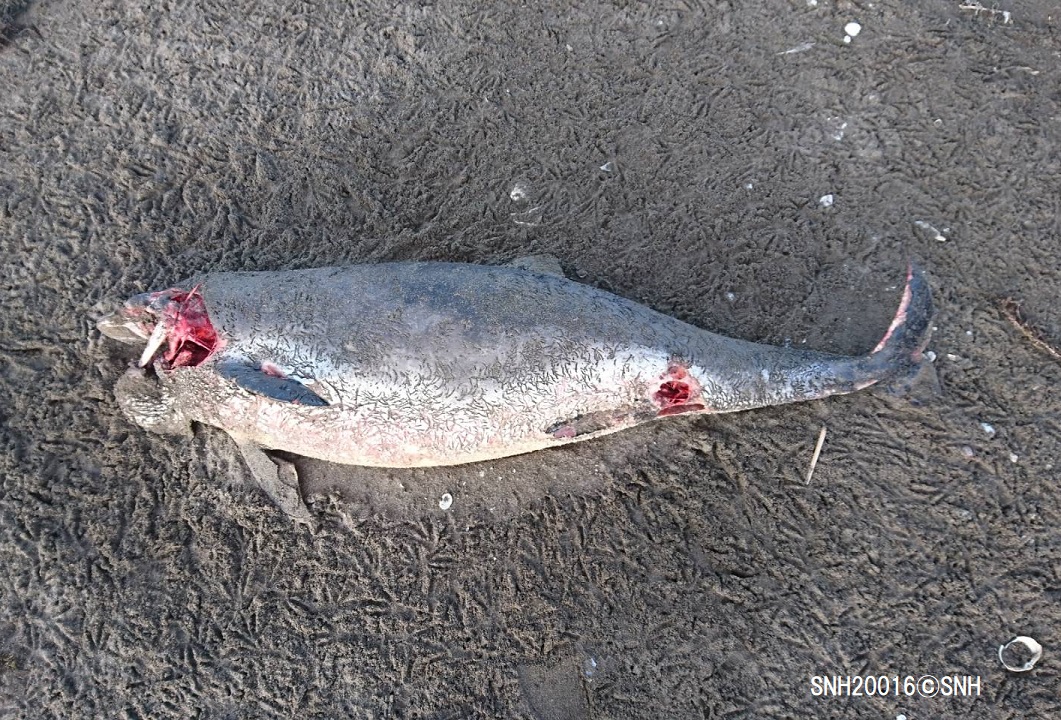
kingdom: Animalia
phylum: Chordata
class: Mammalia
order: Cetacea
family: Phocoenidae
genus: Phocoena
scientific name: Phocoena phocoena
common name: Harbour porpoise
